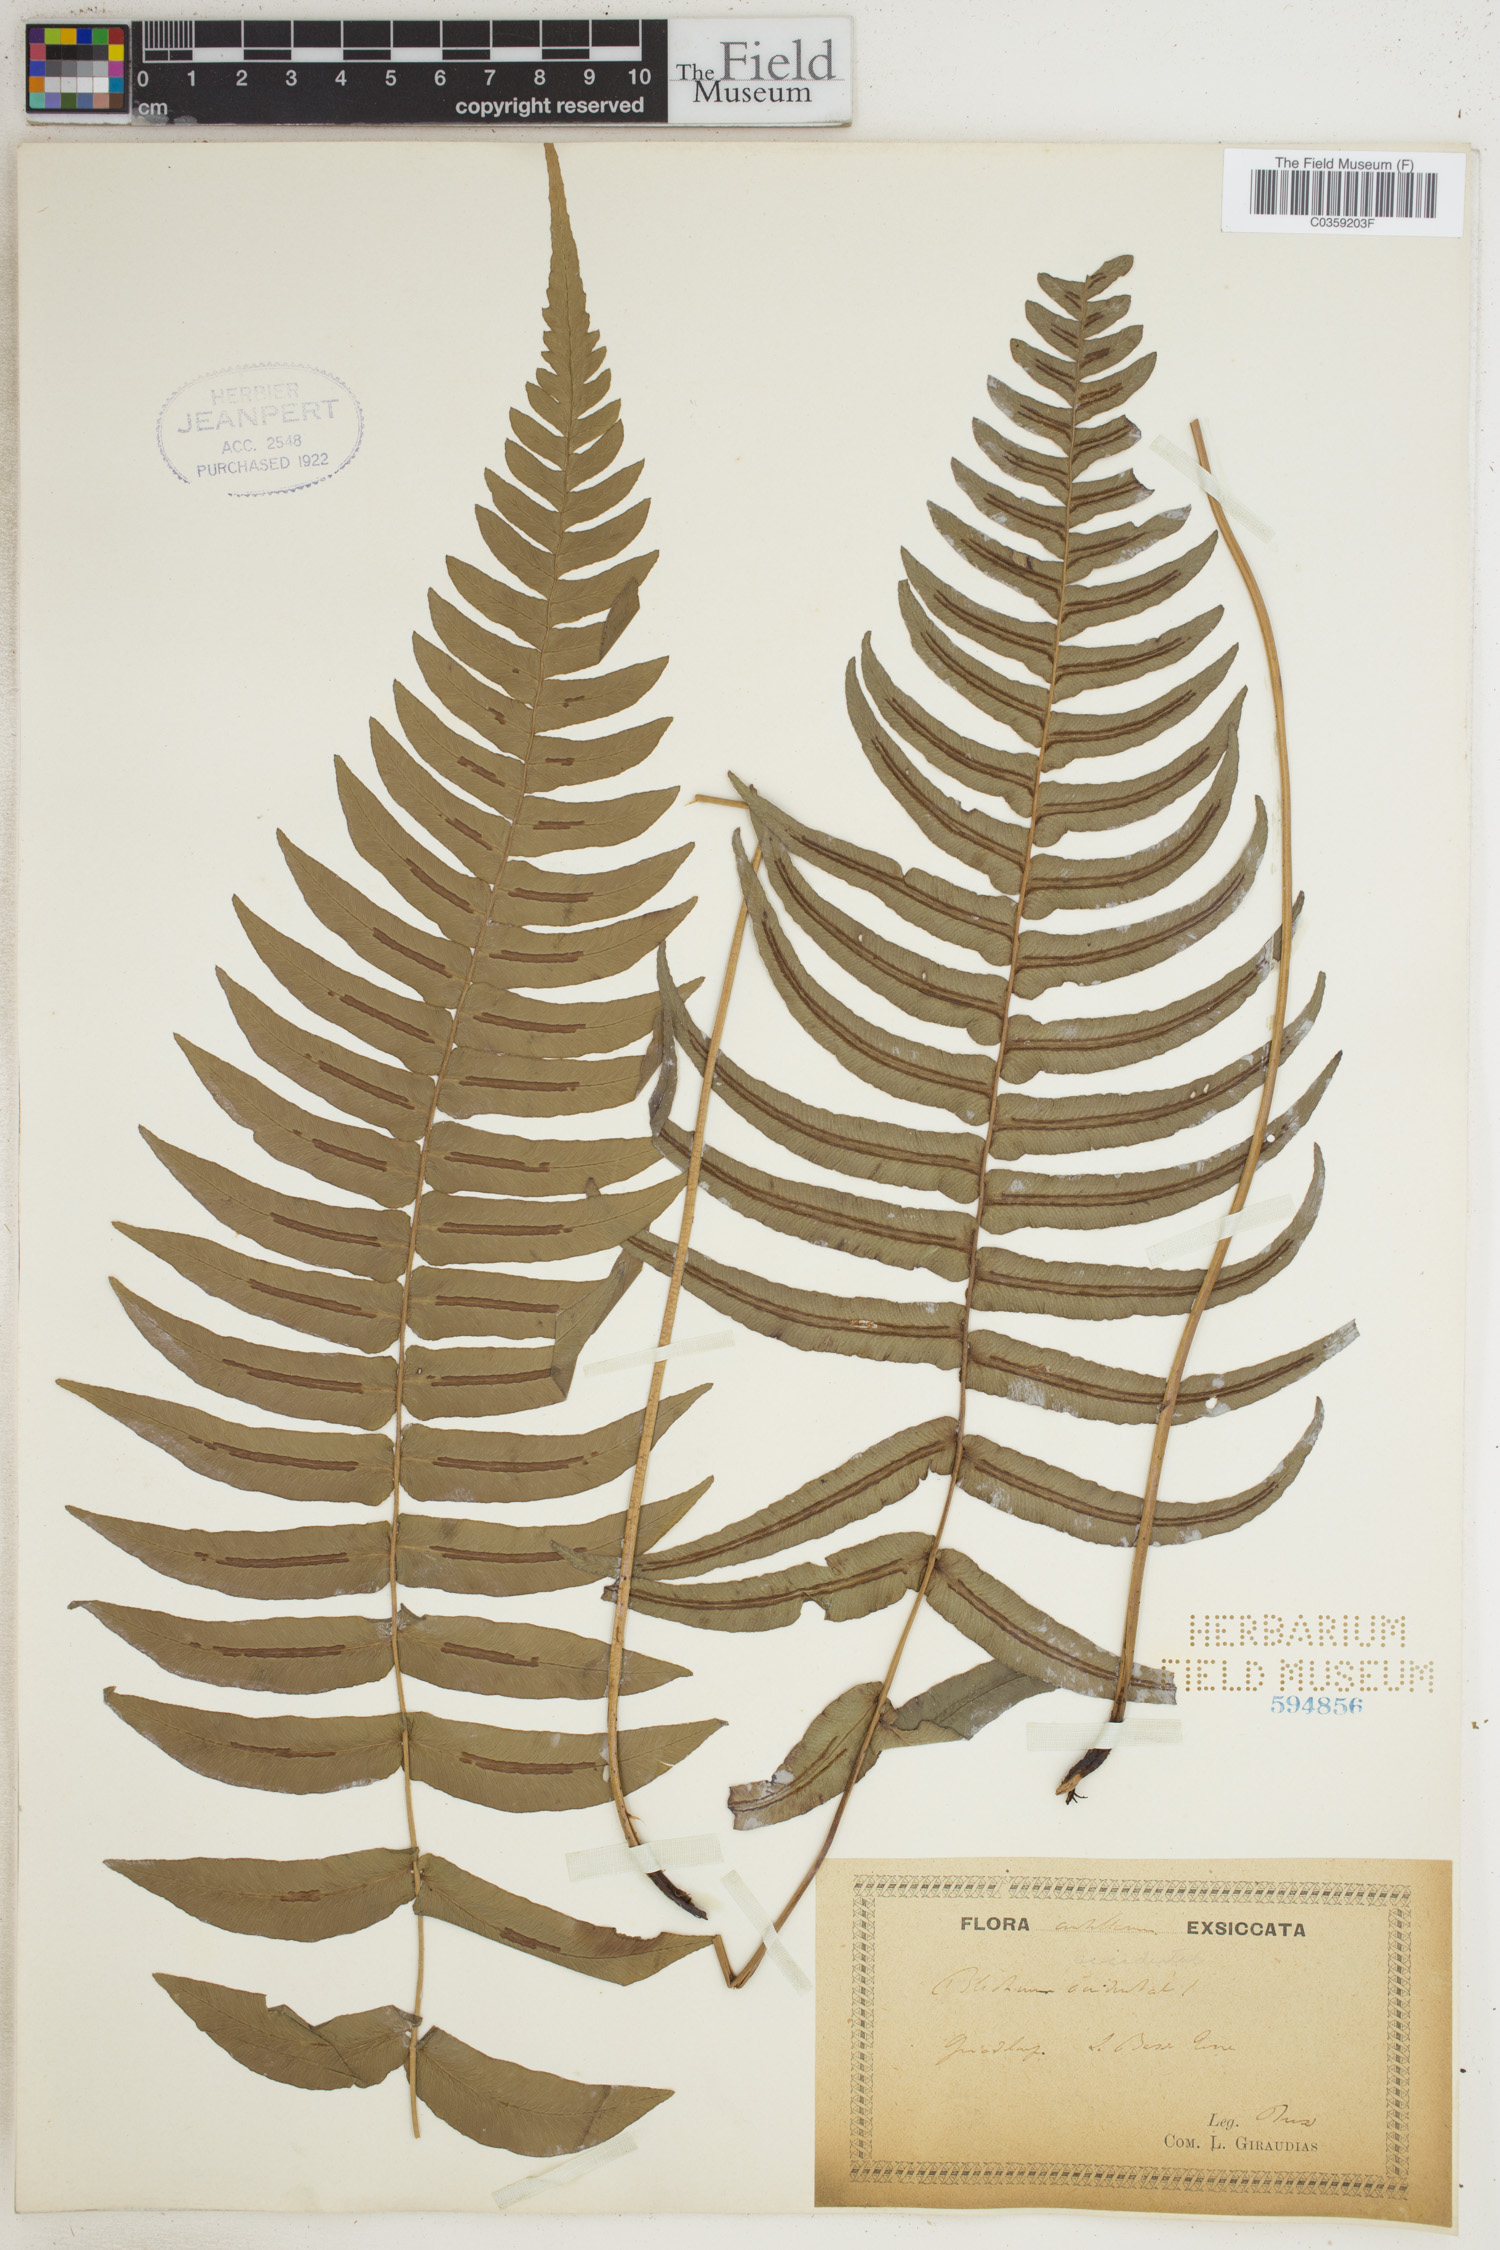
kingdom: Plantae
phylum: Tracheophyta
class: Polypodiopsida
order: Polypodiales
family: Blechnaceae
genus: Blechnum
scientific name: Blechnum occidentale
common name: Hammock fern
